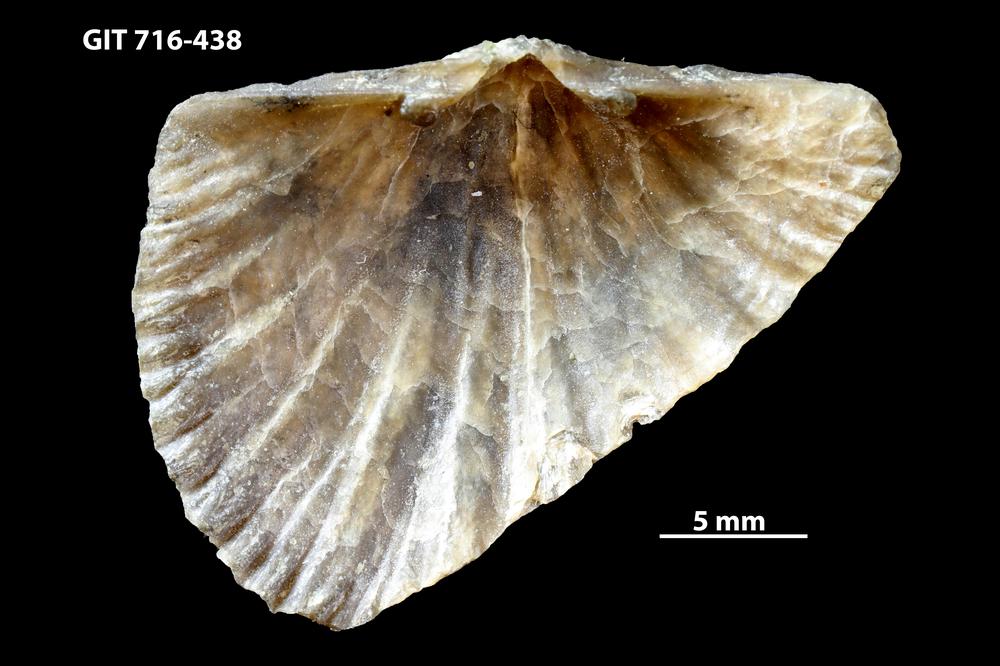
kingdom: Animalia
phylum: Brachiopoda
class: Rhynchonellata
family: Productorthidae
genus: Nicolella
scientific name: Nicolella
